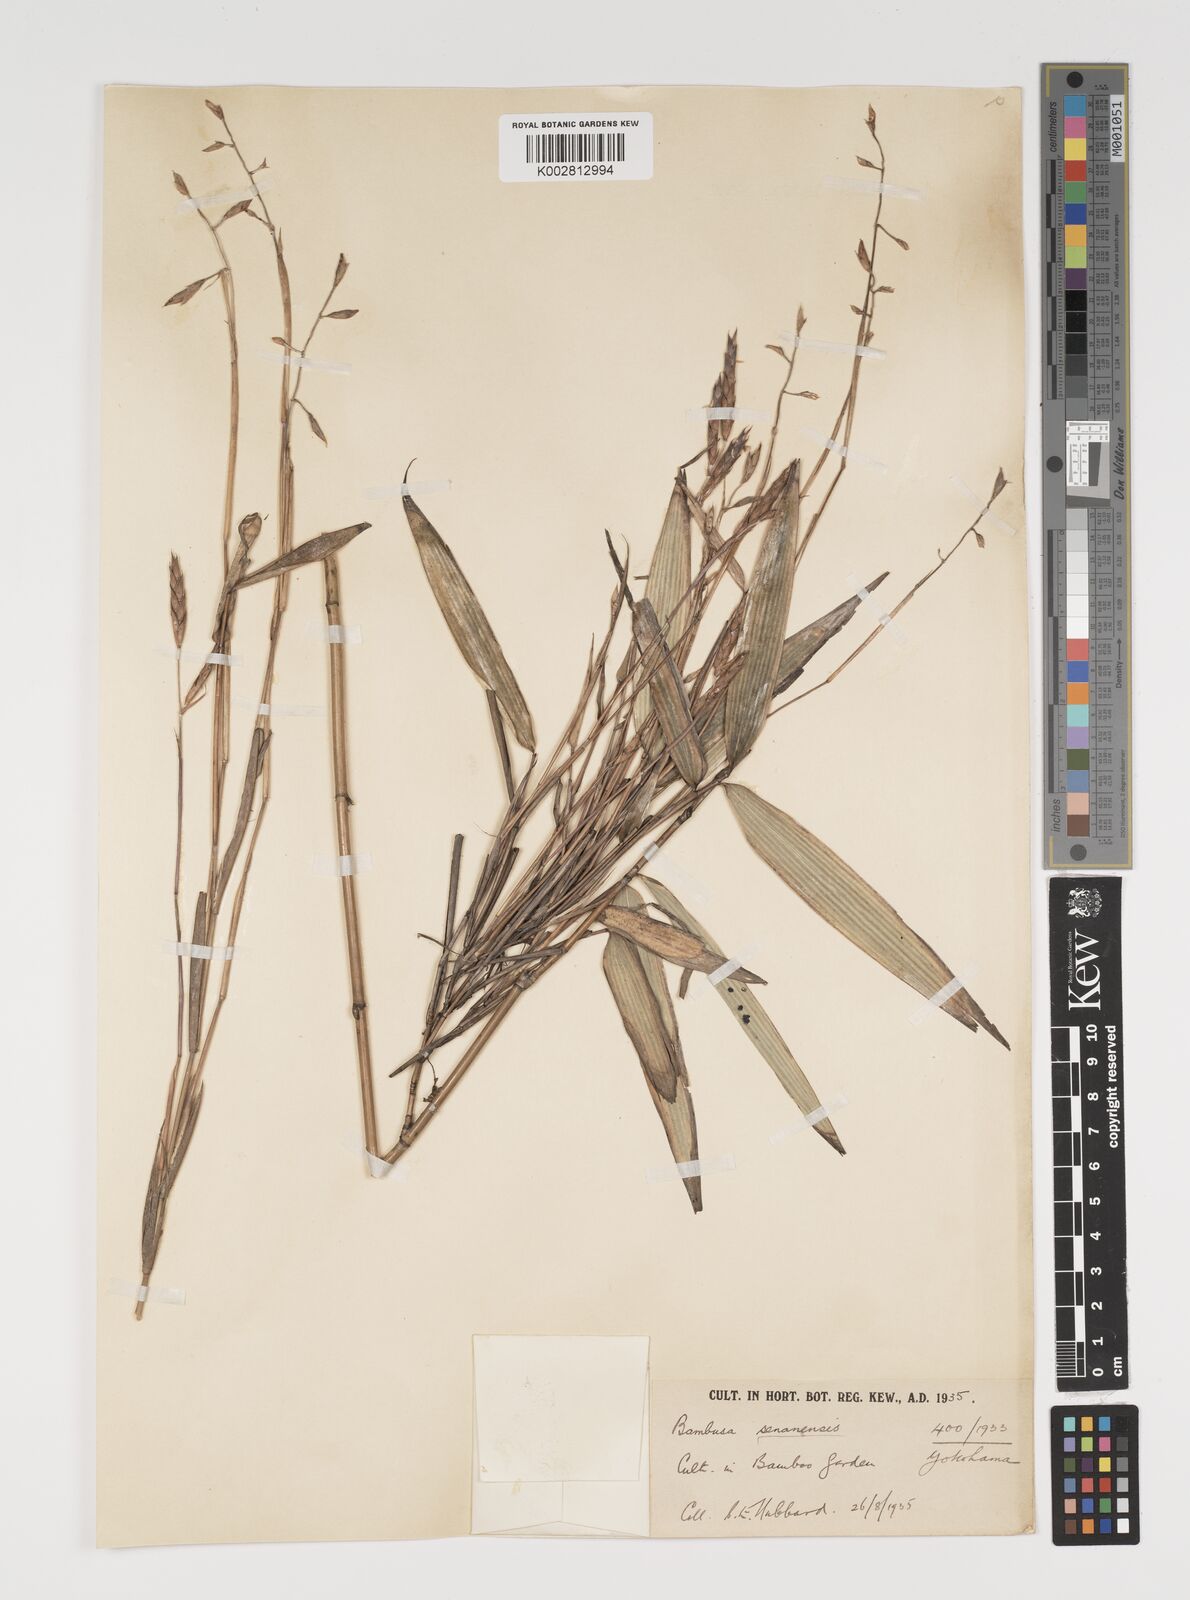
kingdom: Plantae
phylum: Tracheophyta
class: Liliopsida
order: Poales
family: Poaceae
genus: Sasa
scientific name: Sasa palmata
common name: Broad-leaved bamboo
